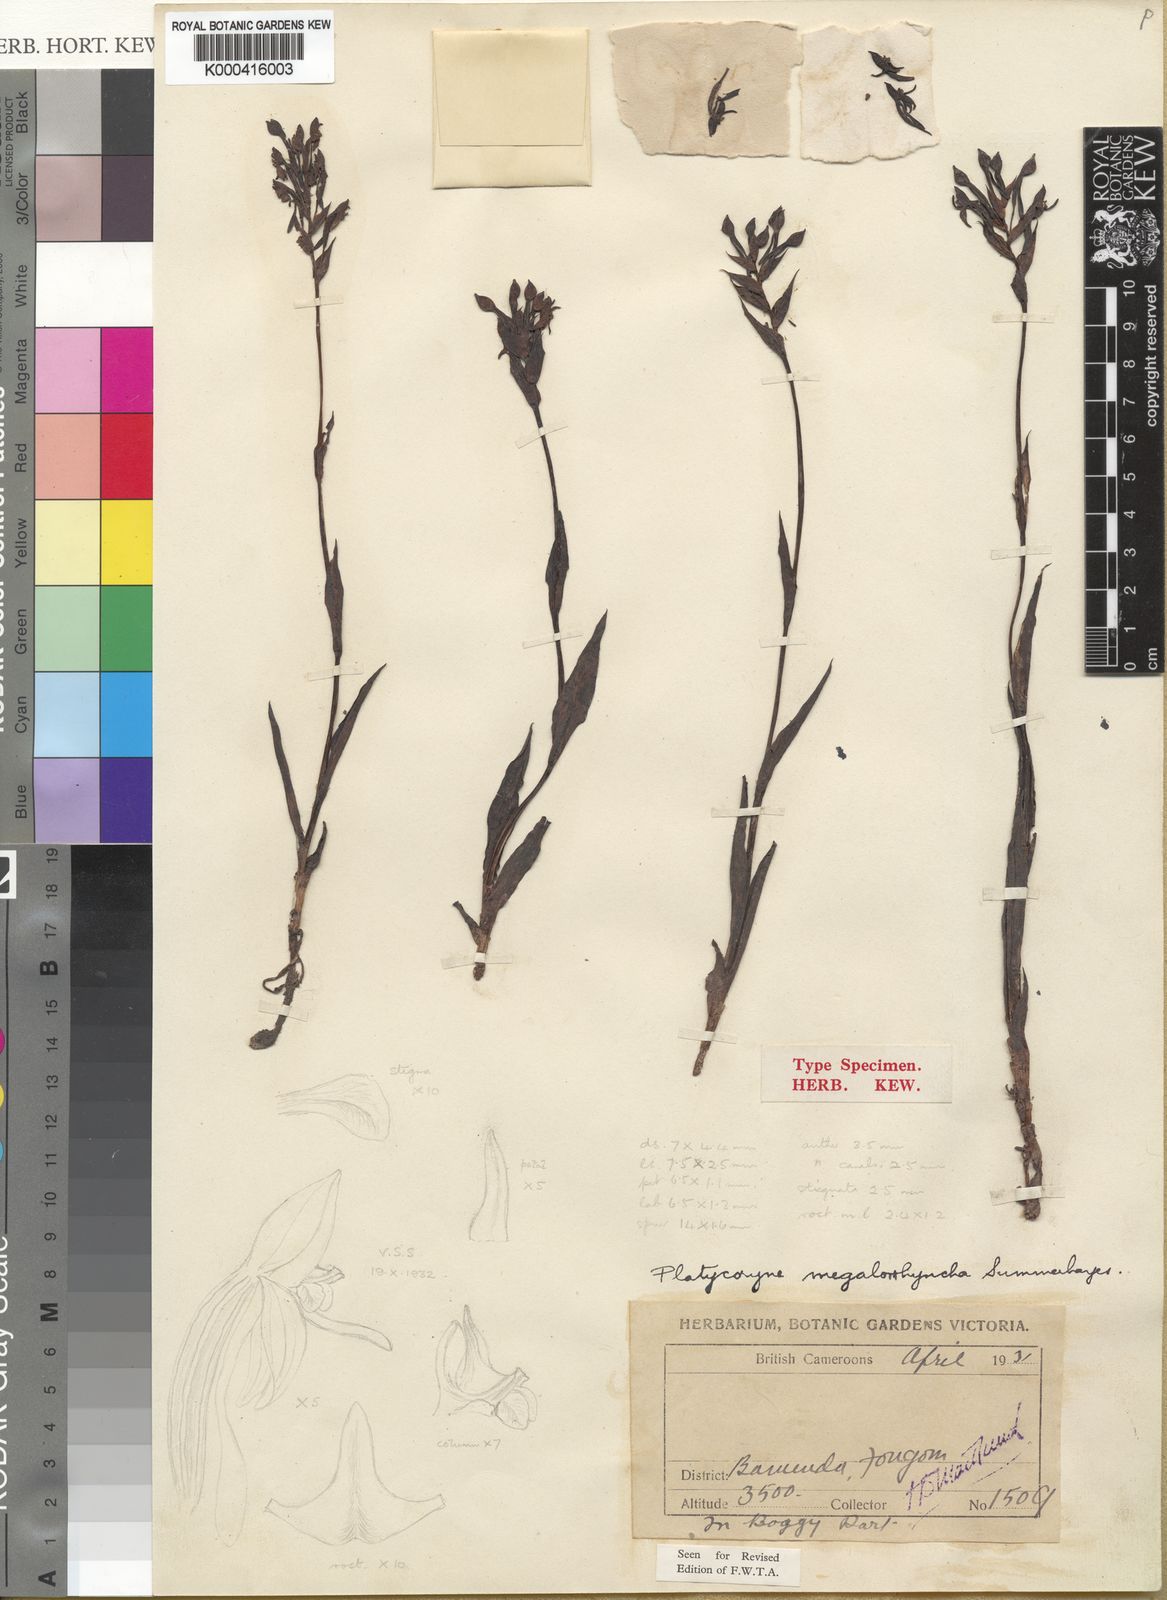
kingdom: Plantae
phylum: Tracheophyta
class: Liliopsida
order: Asparagales
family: Orchidaceae
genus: Platycoryne
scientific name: Platycoryne megalorrhyncha
